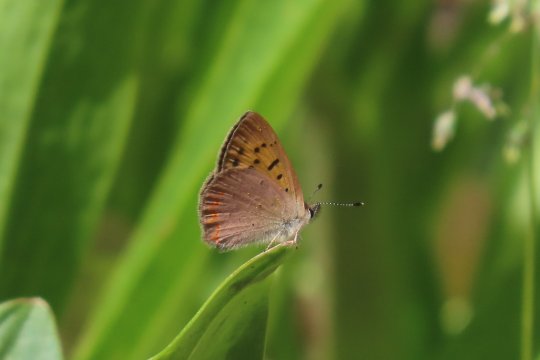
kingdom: Animalia
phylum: Arthropoda
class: Insecta
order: Lepidoptera
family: Sesiidae
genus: Sesia
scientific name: Sesia Lycaena helloides
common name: Purplish Copper
